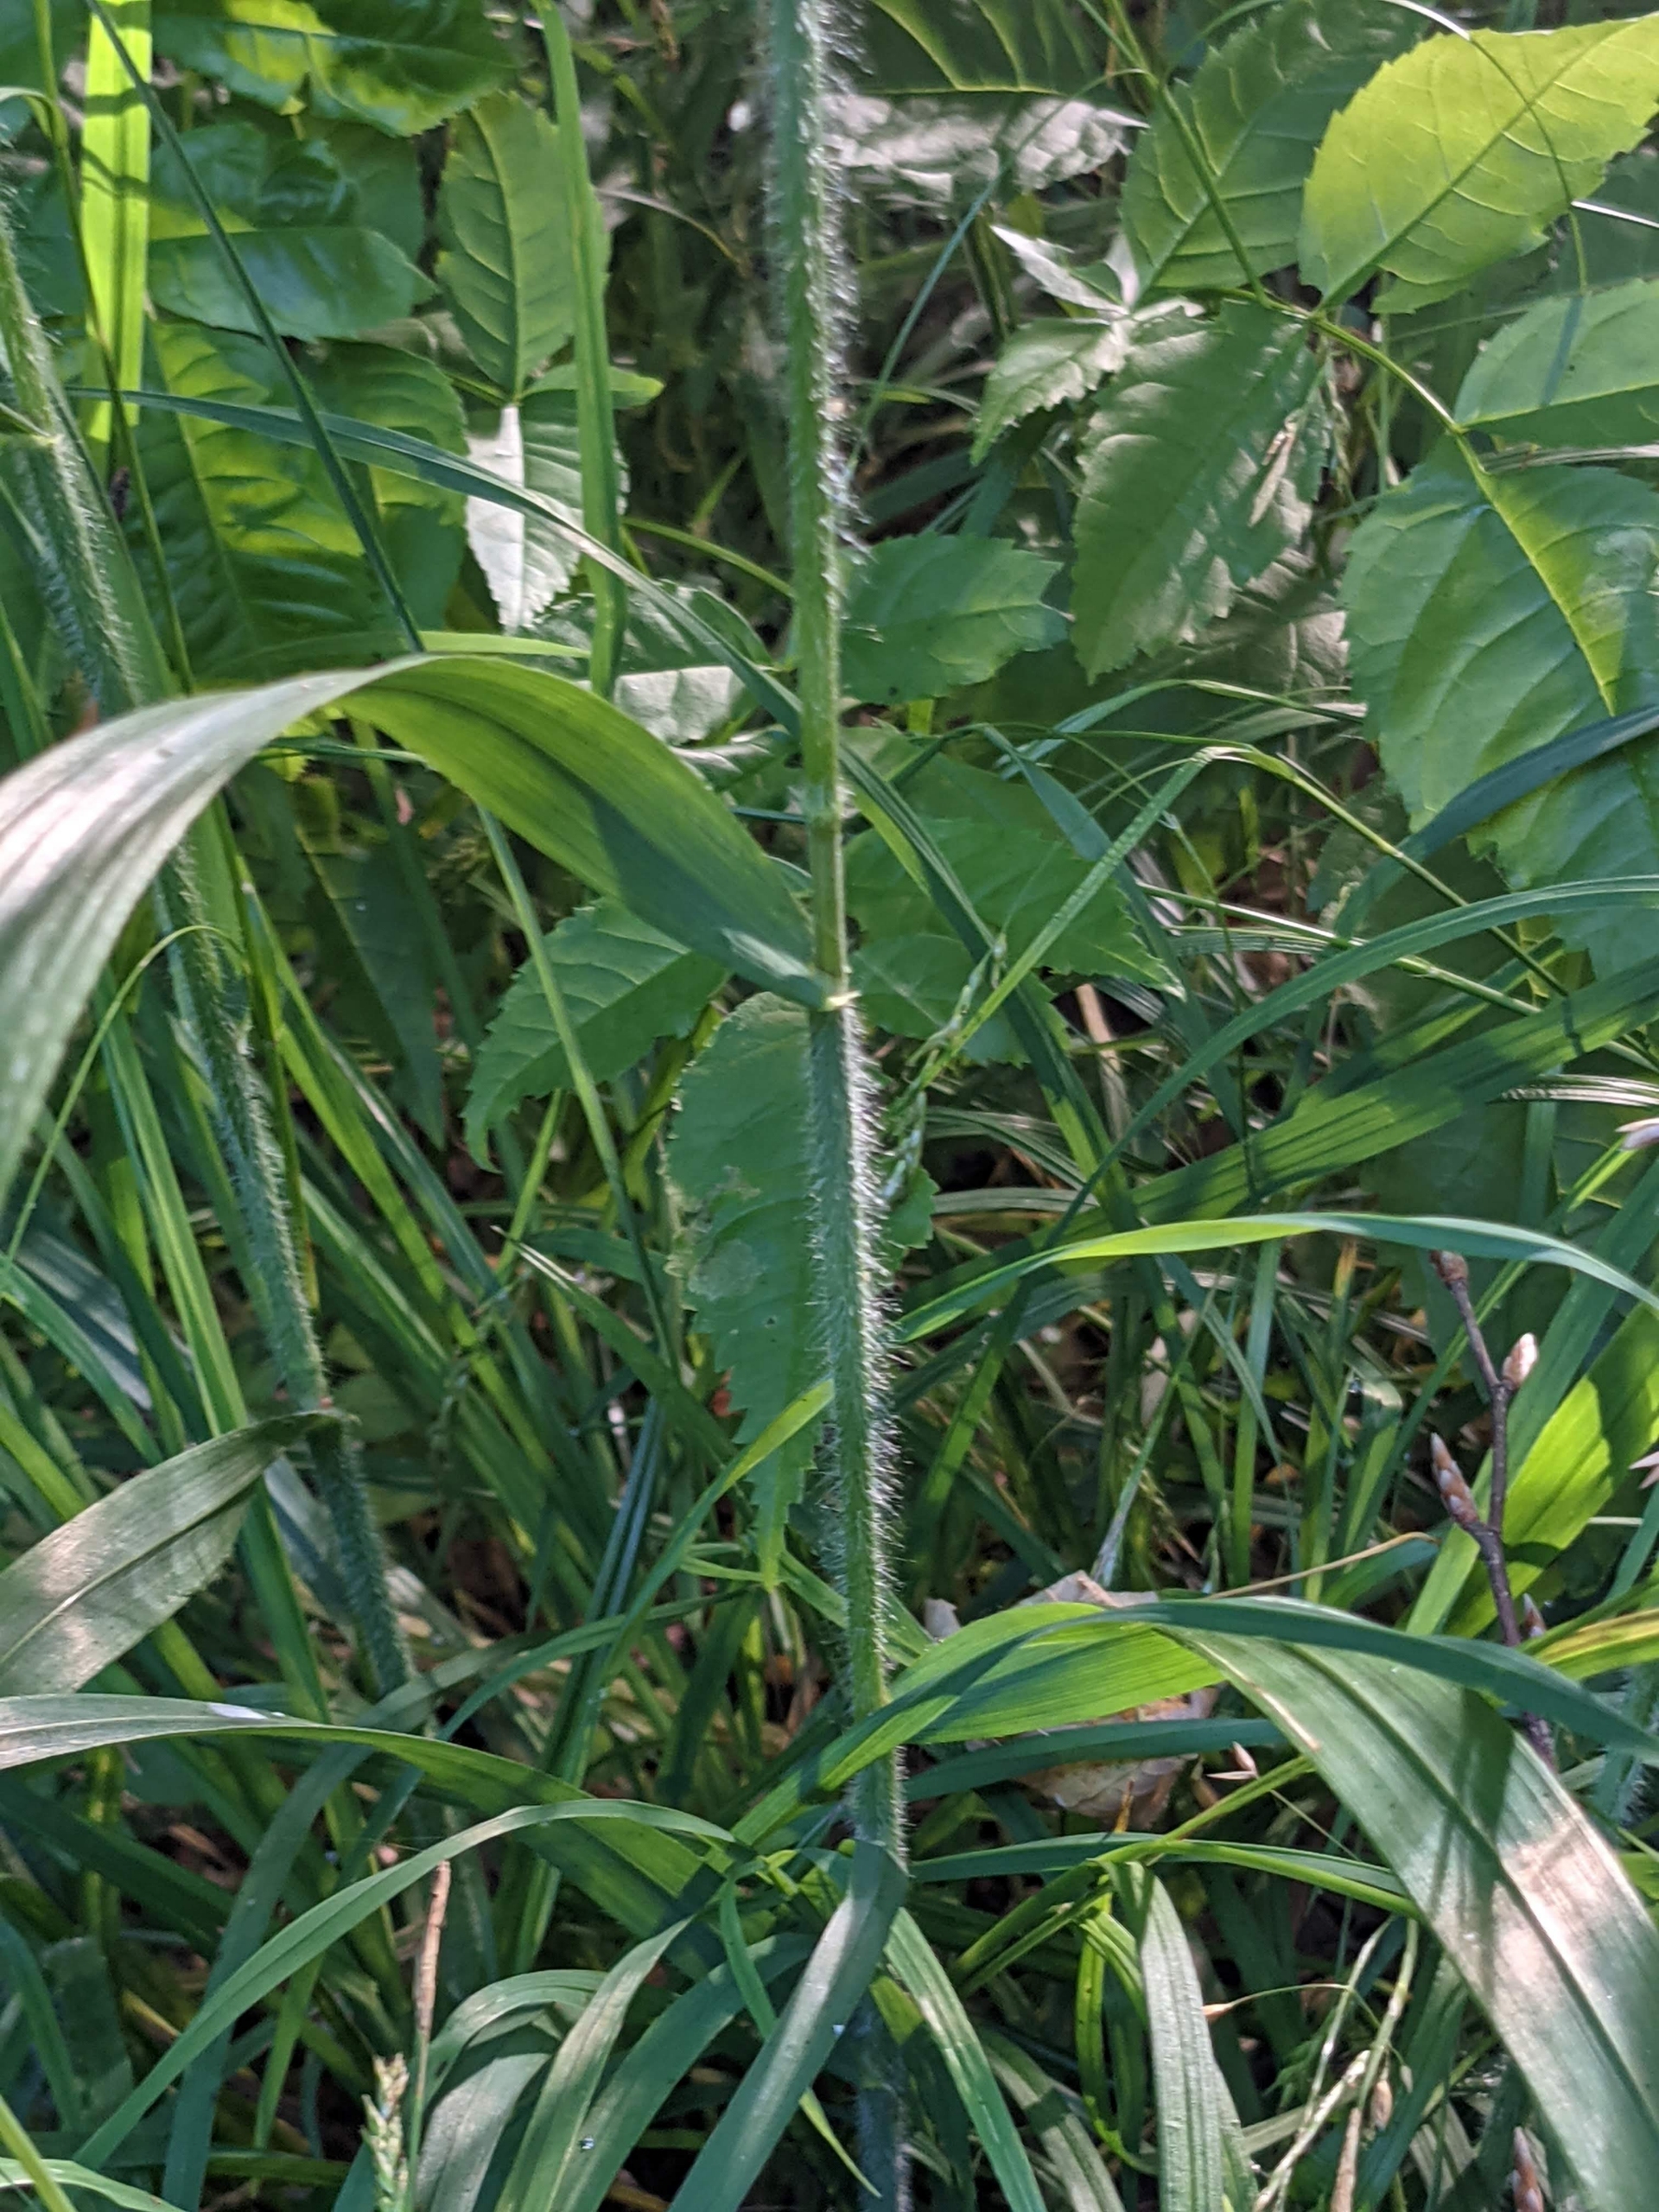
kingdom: Plantae
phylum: Tracheophyta
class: Liliopsida
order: Poales
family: Poaceae
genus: Bromus
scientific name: Bromus ramosus
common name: Sildig skov-hejre
